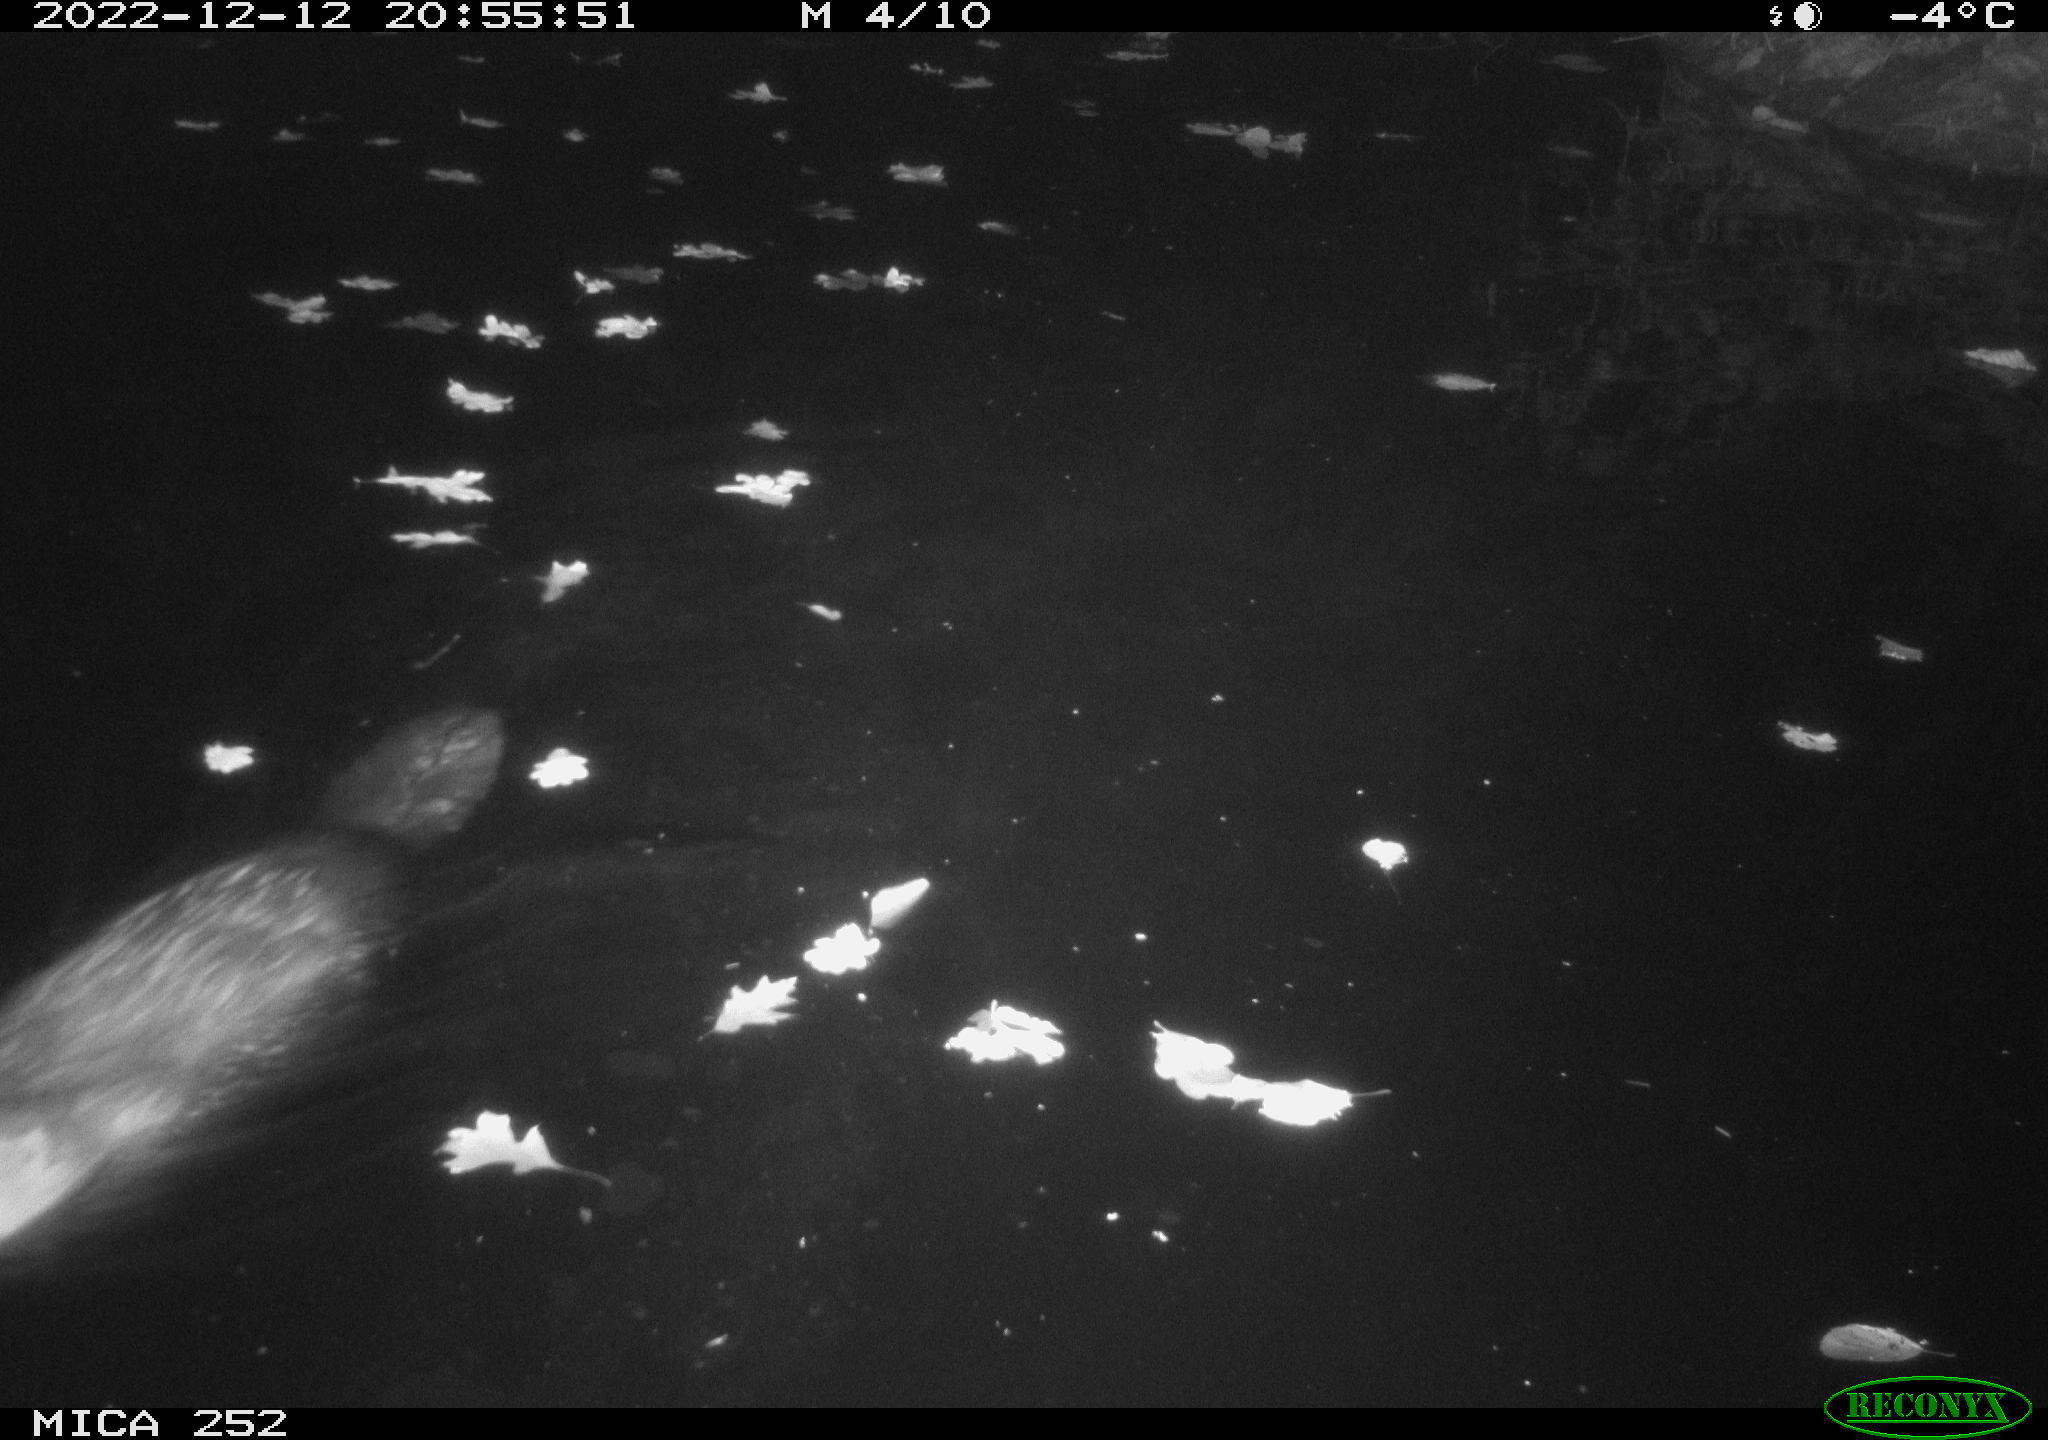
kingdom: Animalia
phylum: Chordata
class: Mammalia
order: Rodentia
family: Castoridae
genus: Castor
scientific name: Castor fiber
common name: Eurasian beaver
